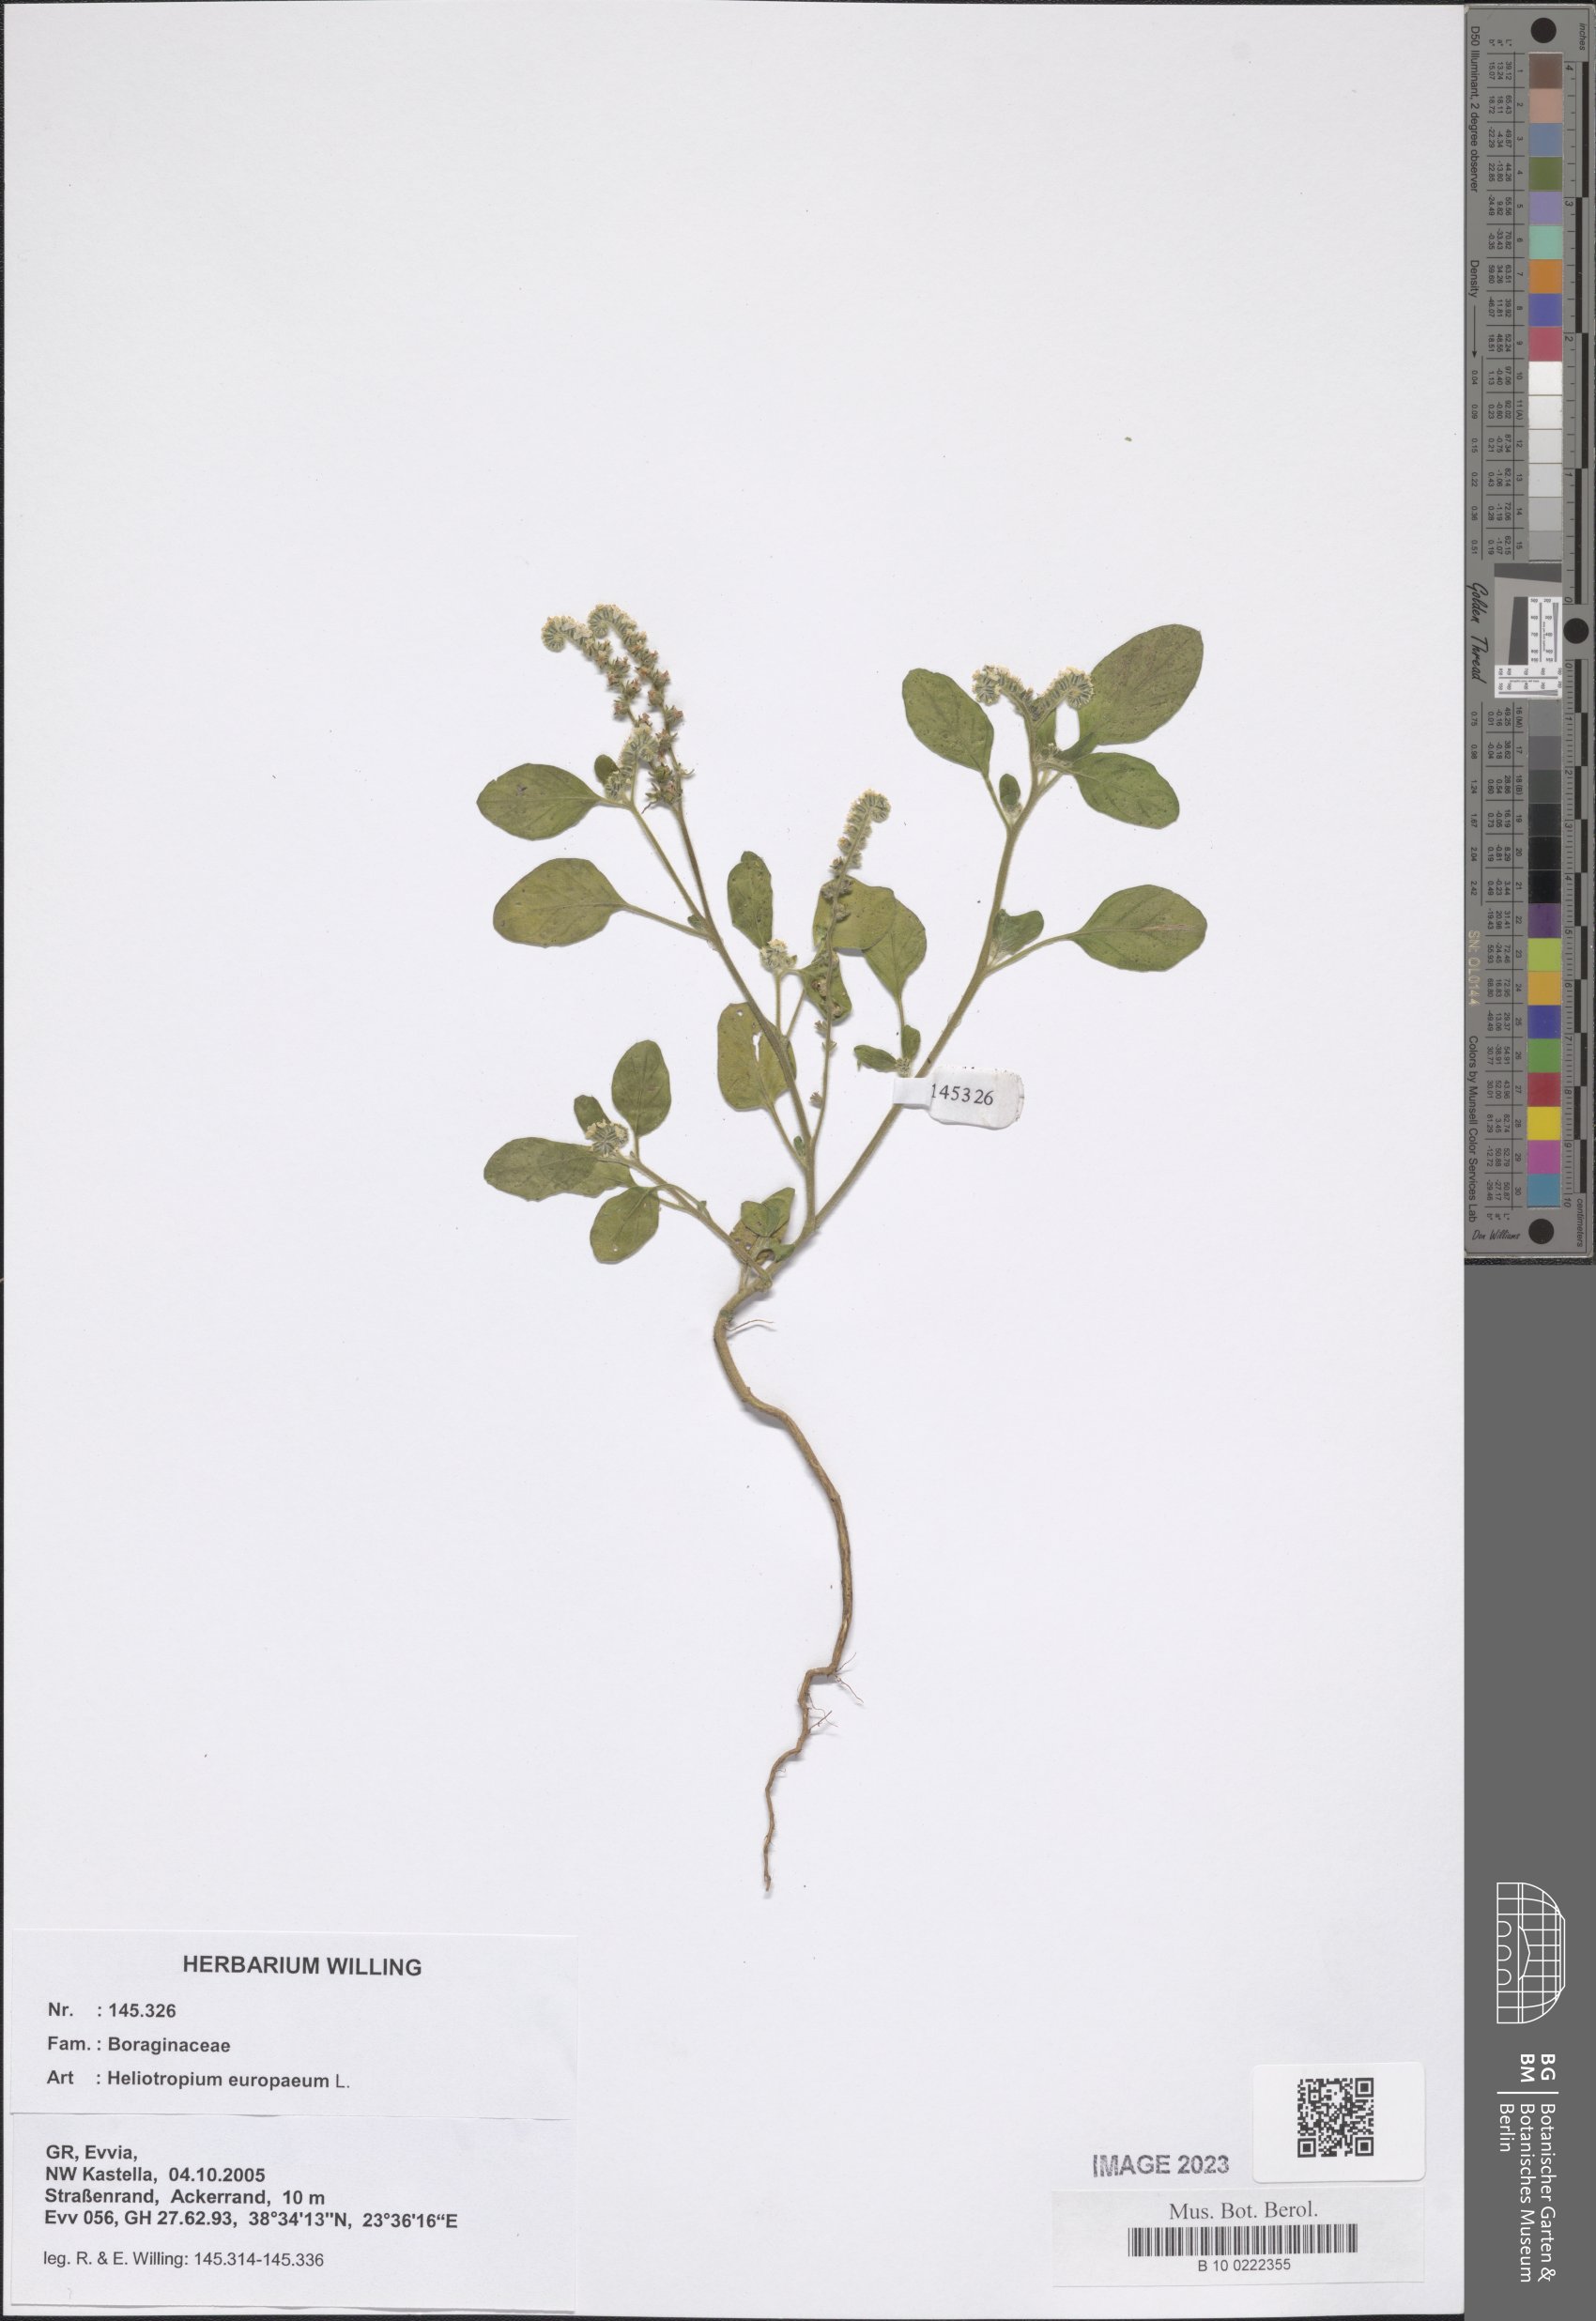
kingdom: Plantae
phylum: Tracheophyta
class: Magnoliopsida
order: Boraginales
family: Heliotropiaceae
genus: Heliotropium
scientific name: Heliotropium europaeum
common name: European heliotrope
